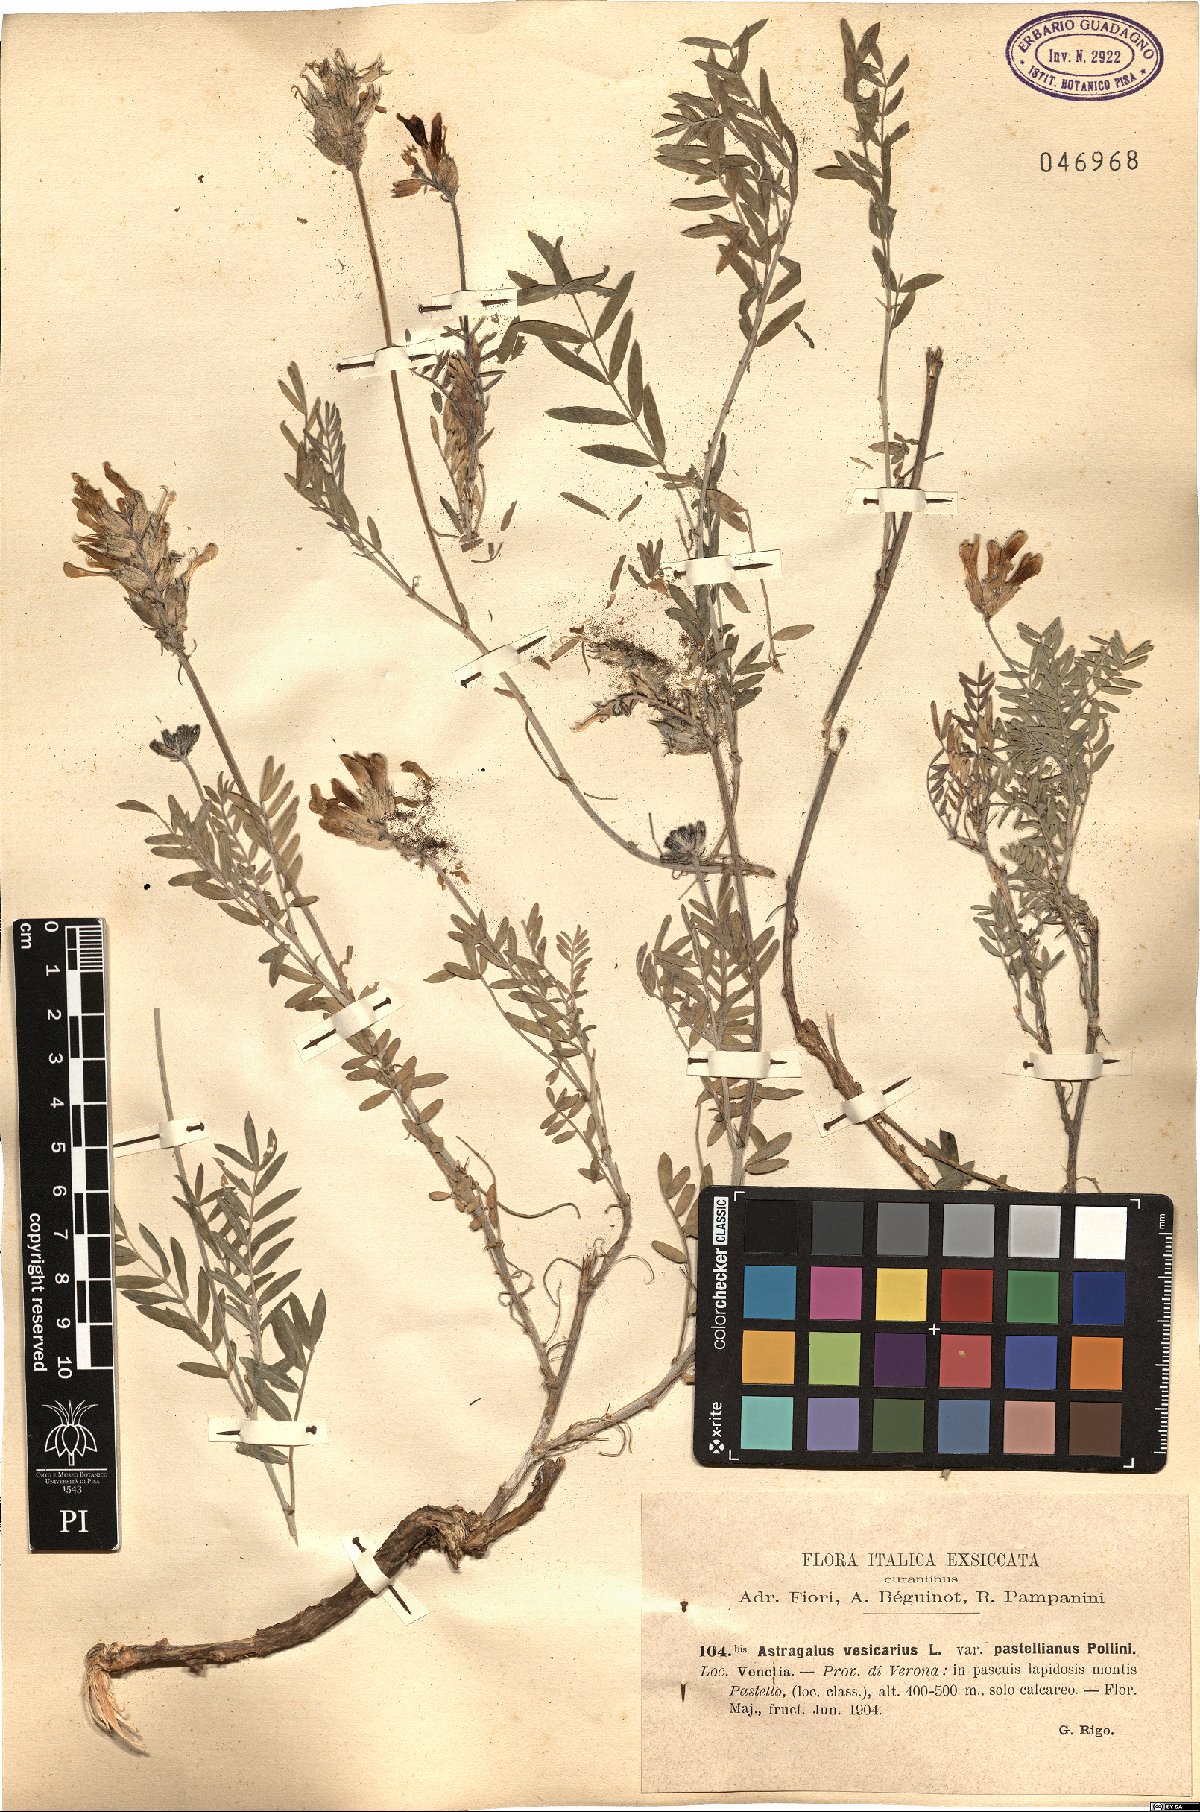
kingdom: Plantae
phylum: Tracheophyta
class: Magnoliopsida
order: Fabales
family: Fabaceae
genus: Astragalus
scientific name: Astragalus vesicarius
